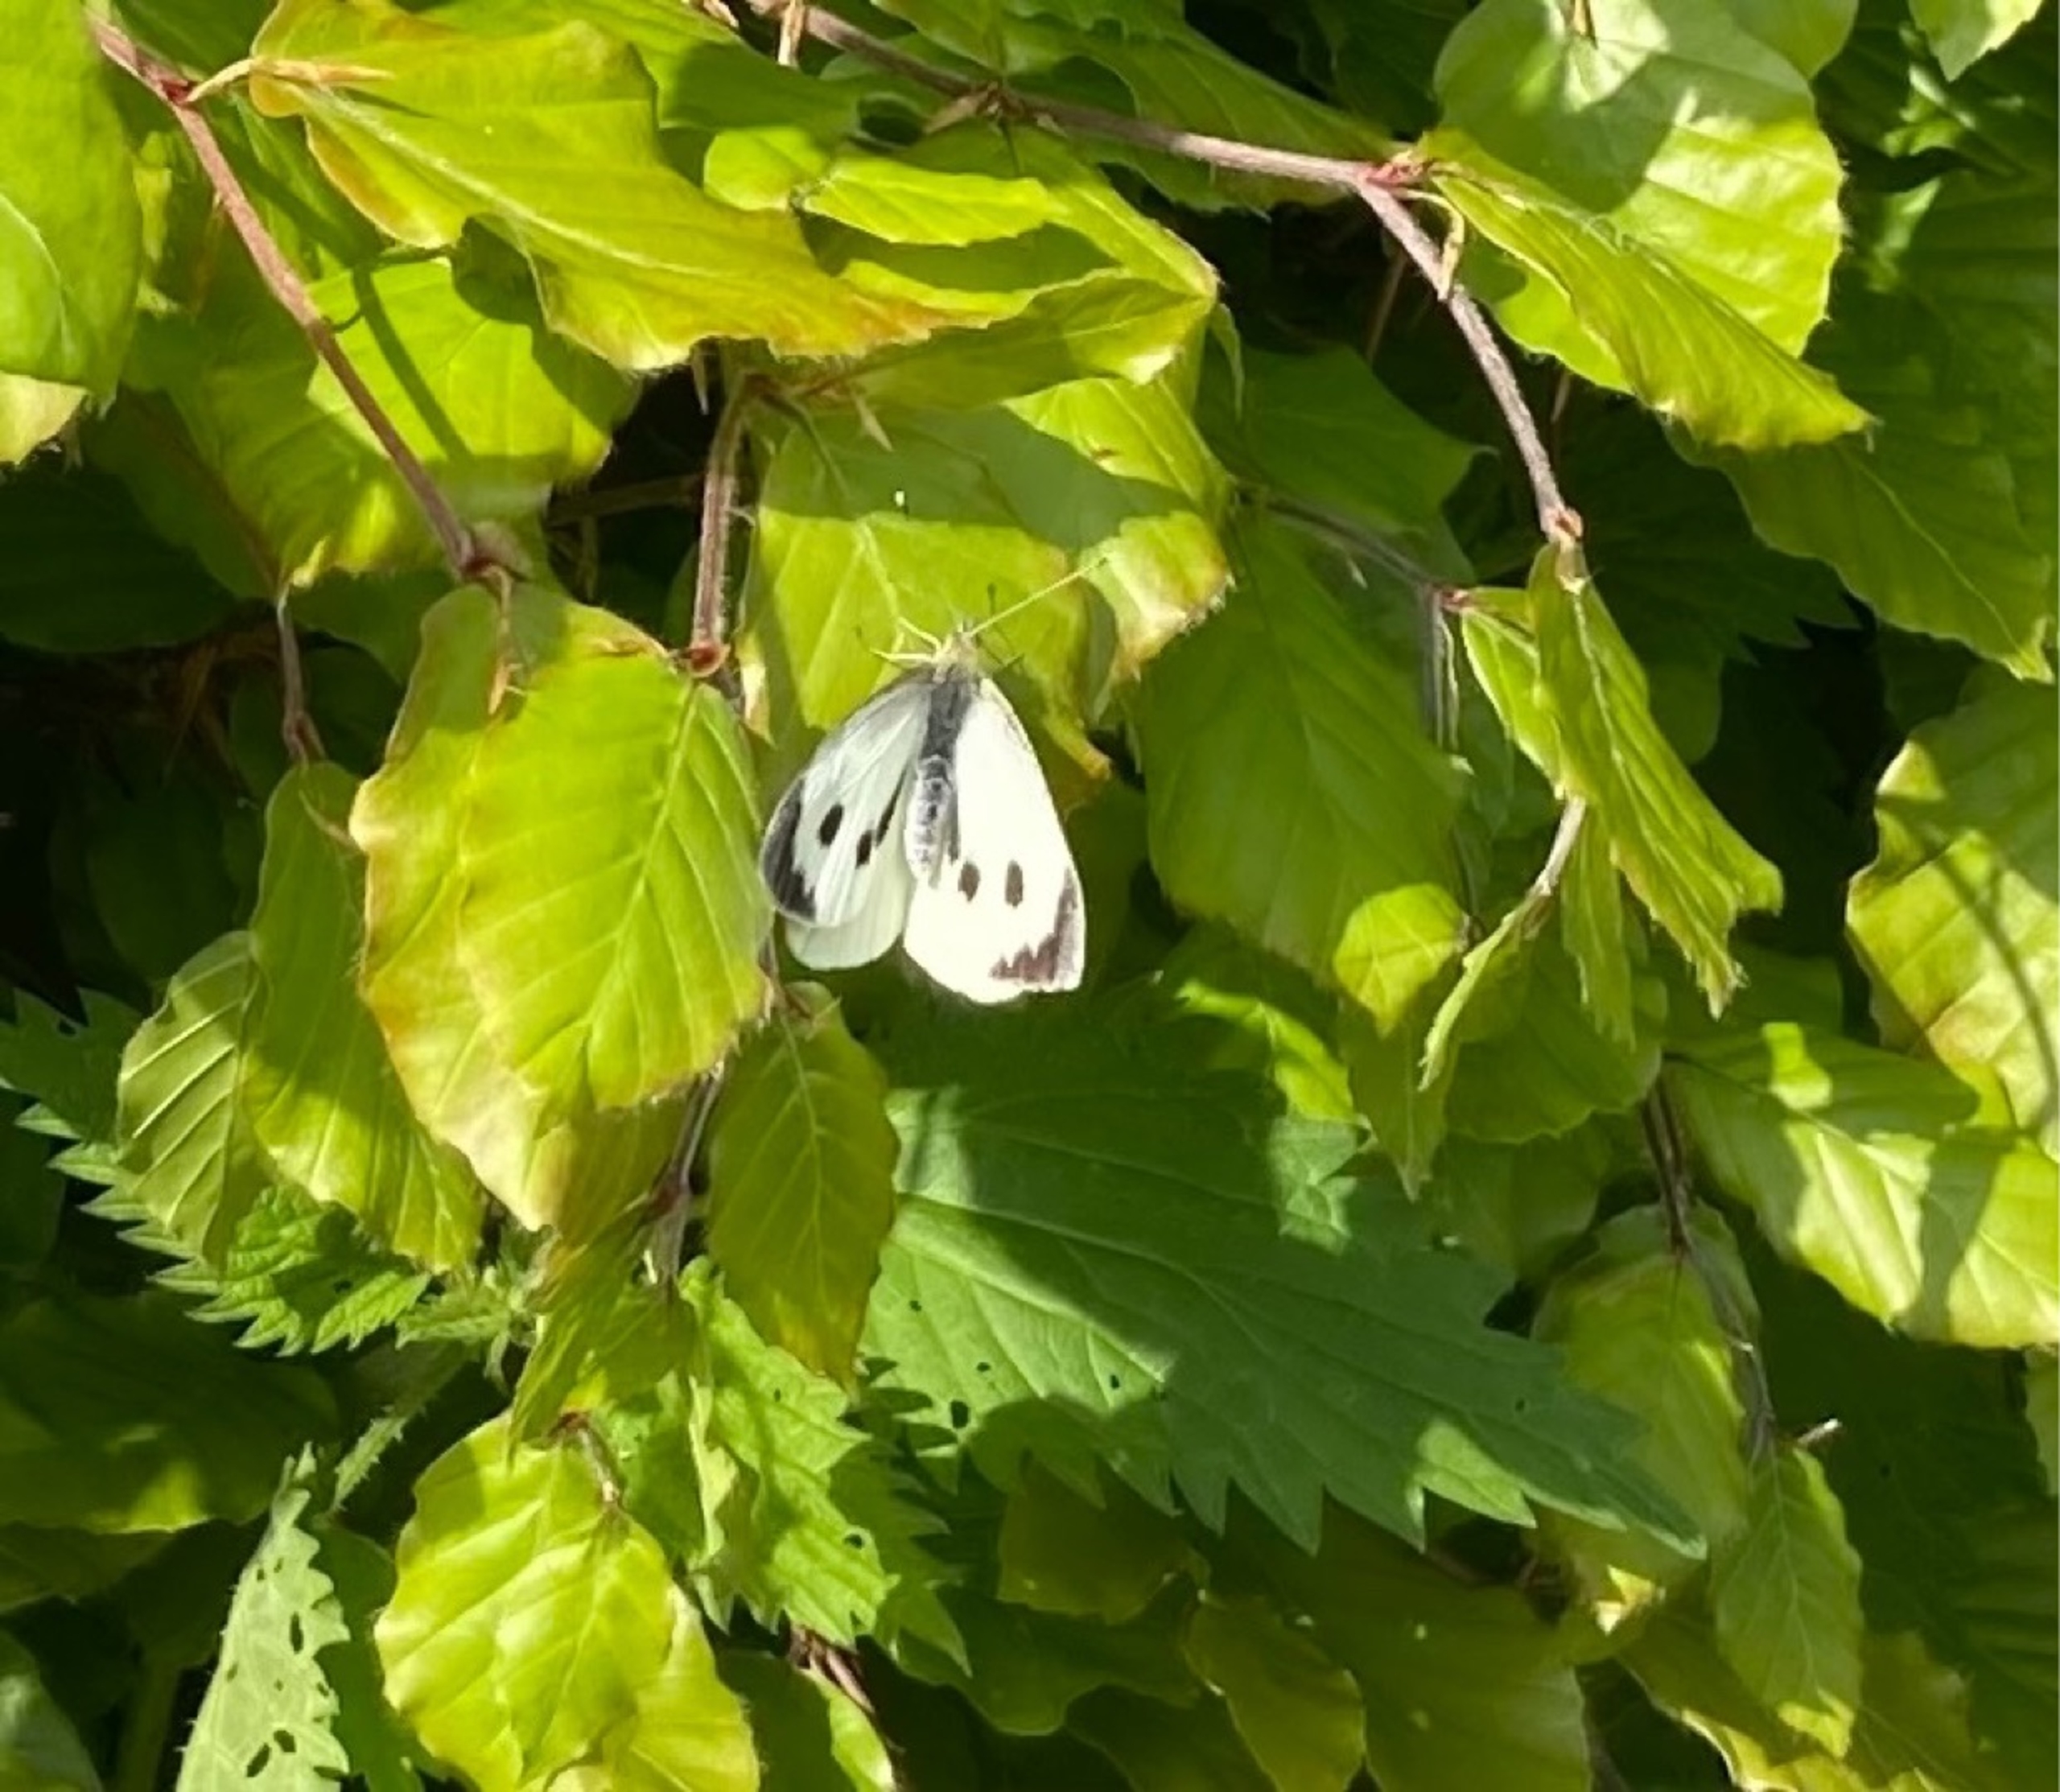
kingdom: Animalia
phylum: Arthropoda
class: Insecta
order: Lepidoptera
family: Pieridae
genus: Pieris
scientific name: Pieris brassicae
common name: Stor kålsommerfugl
